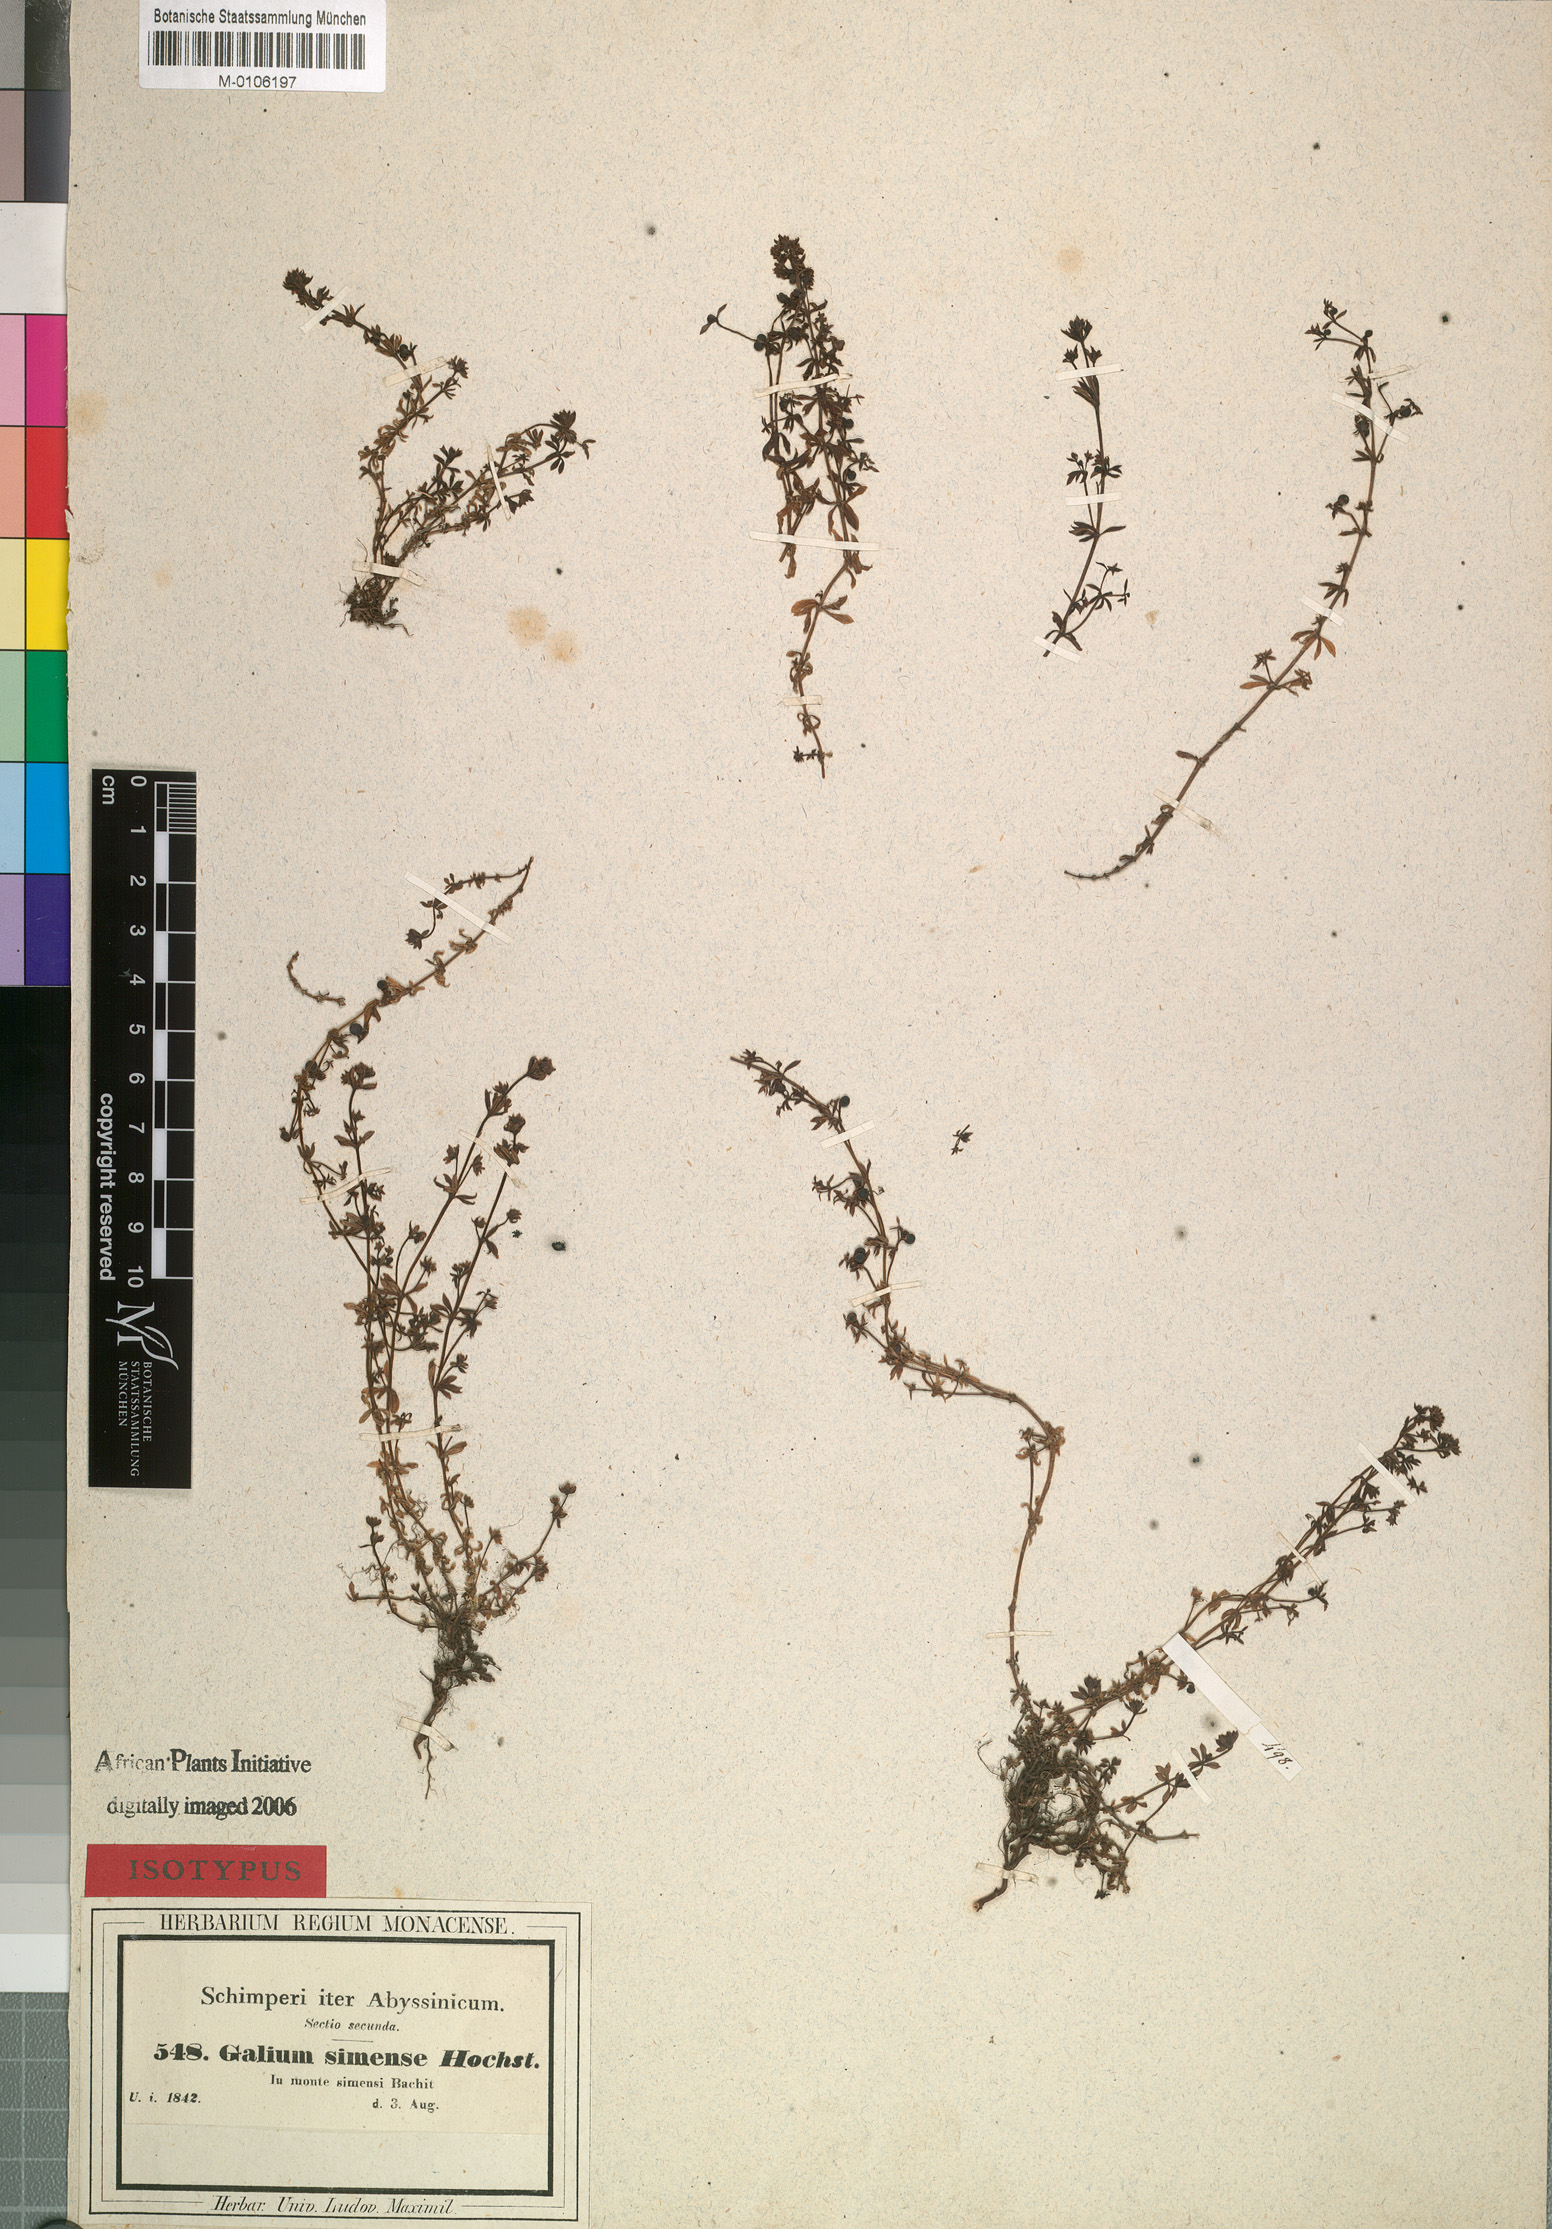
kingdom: Plantae
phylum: Tracheophyta
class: Magnoliopsida
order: Gentianales
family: Rubiaceae
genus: Galium
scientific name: Galium acrophyum
